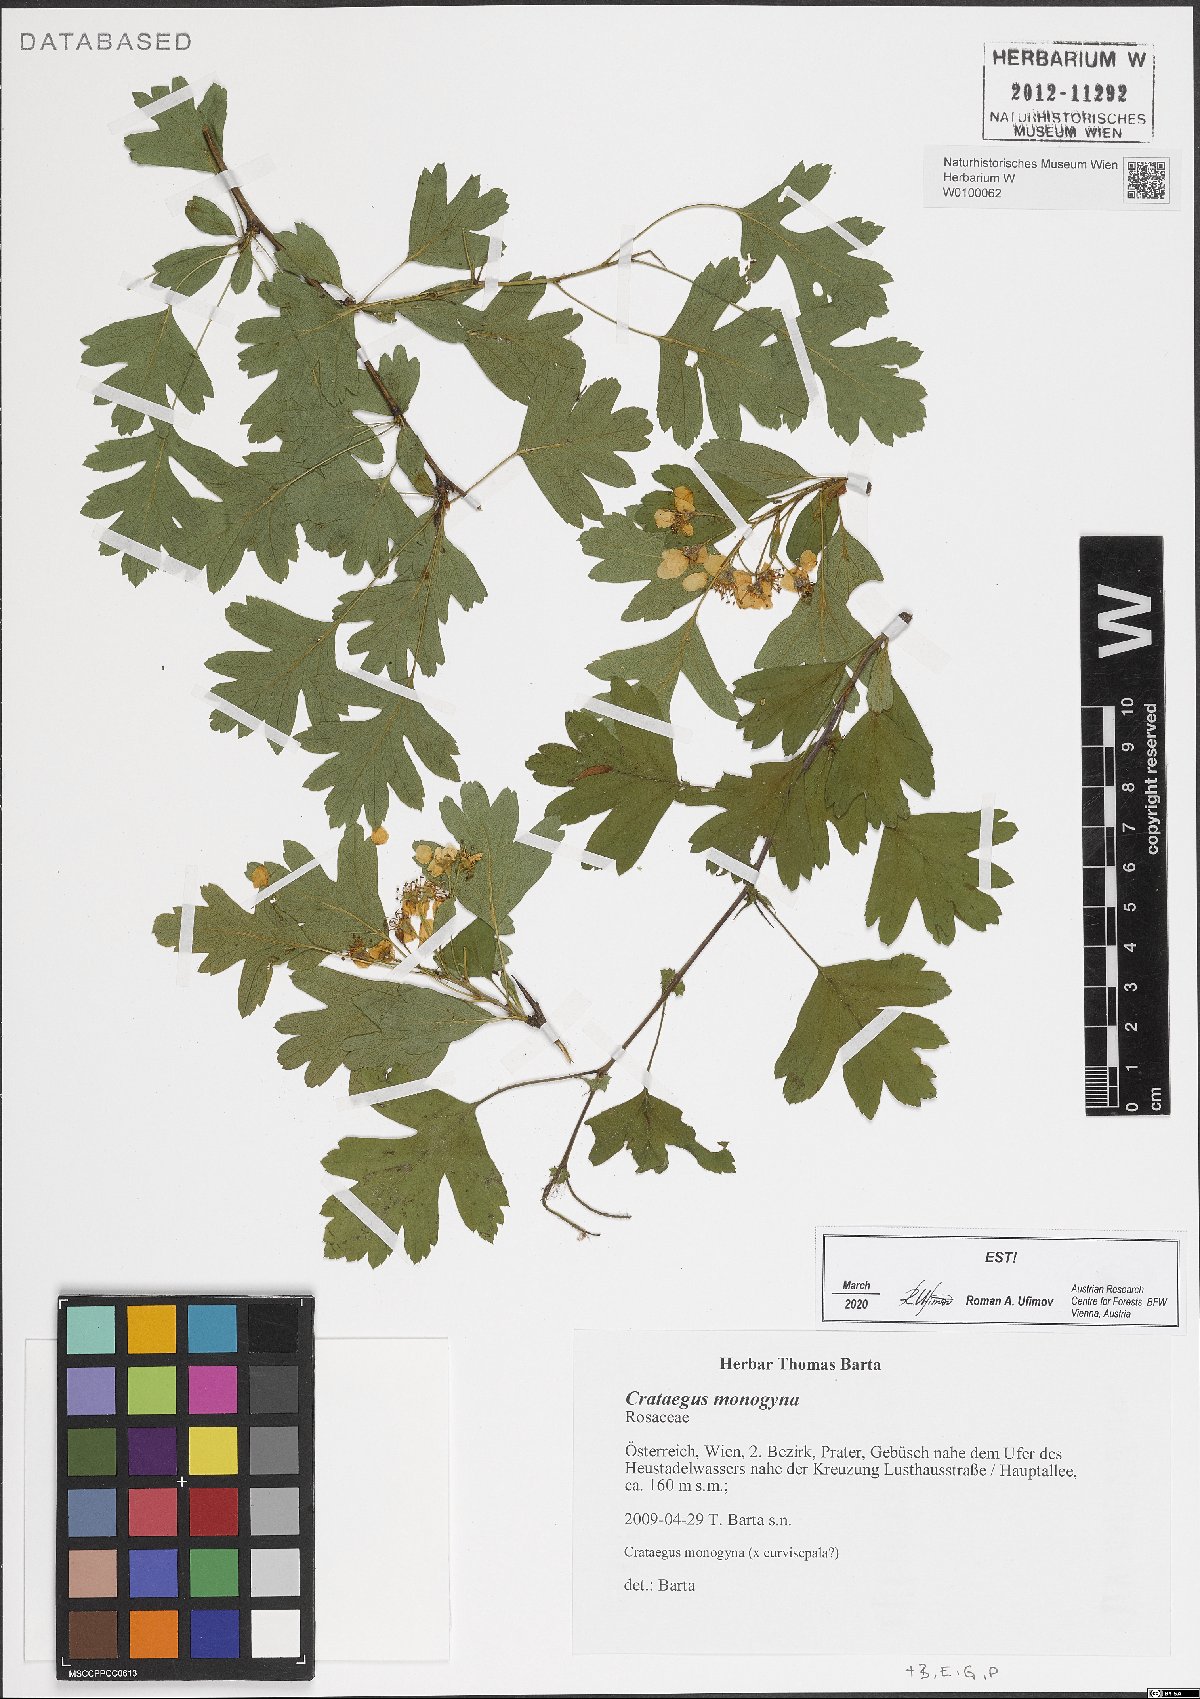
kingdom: Plantae
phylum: Tracheophyta
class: Magnoliopsida
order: Rosales
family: Rosaceae
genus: Crataegus
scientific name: Crataegus monogyna
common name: Hawthorn
